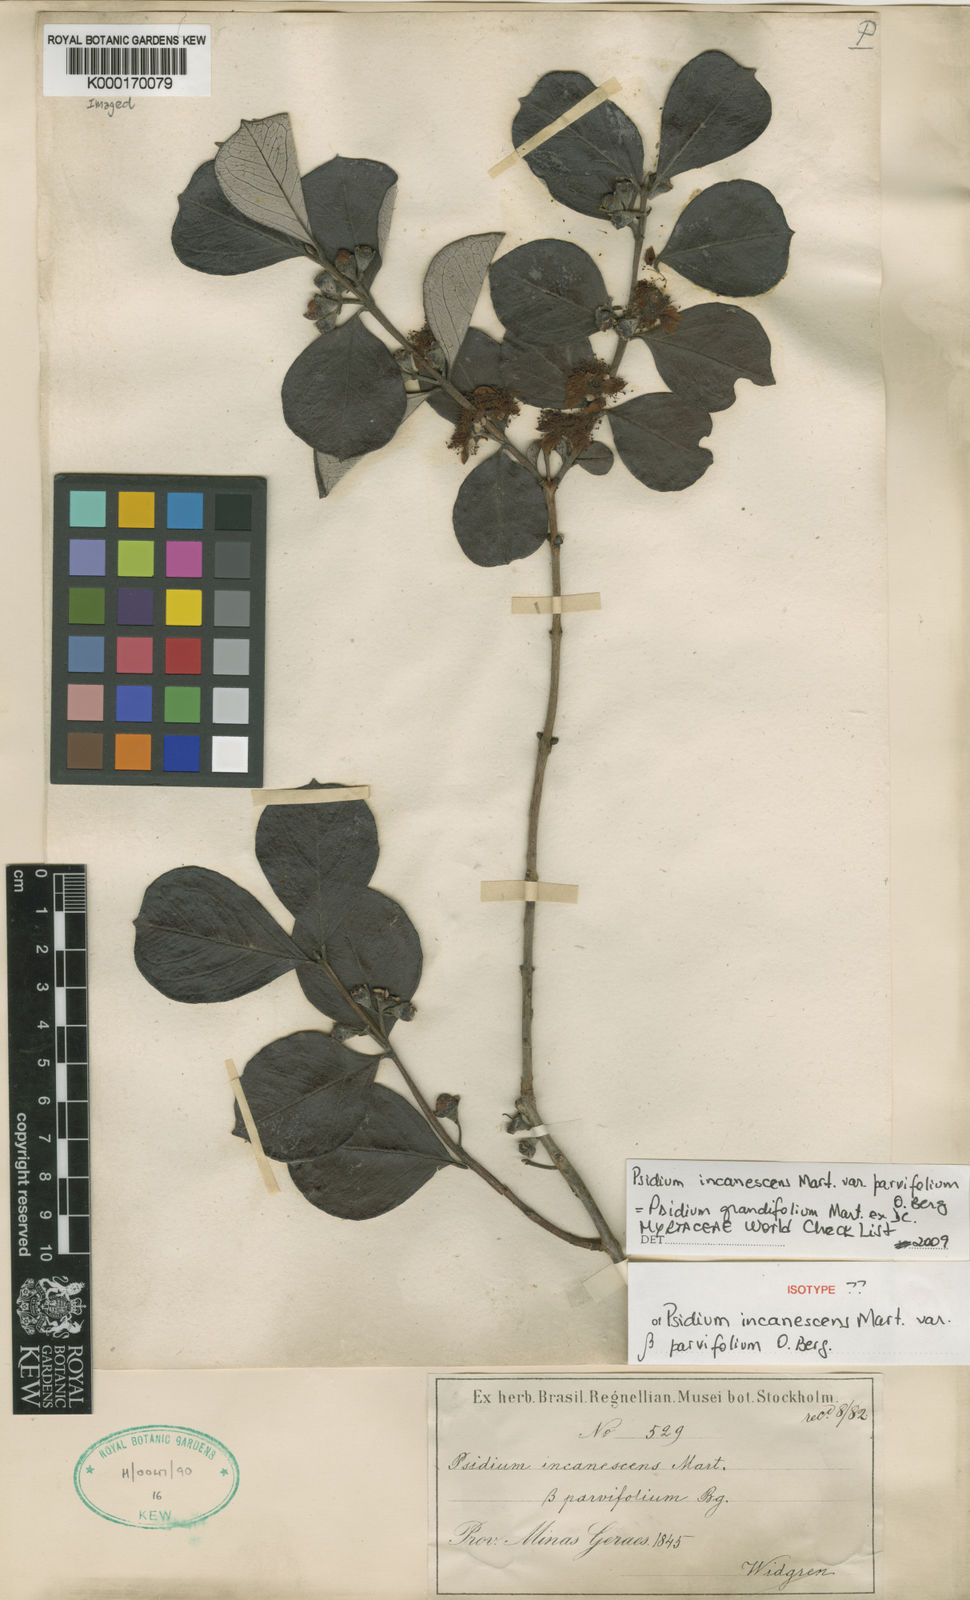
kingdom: Plantae
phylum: Tracheophyta
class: Magnoliopsida
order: Myrtales
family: Myrtaceae
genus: Psidium
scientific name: Psidium grandifolium
